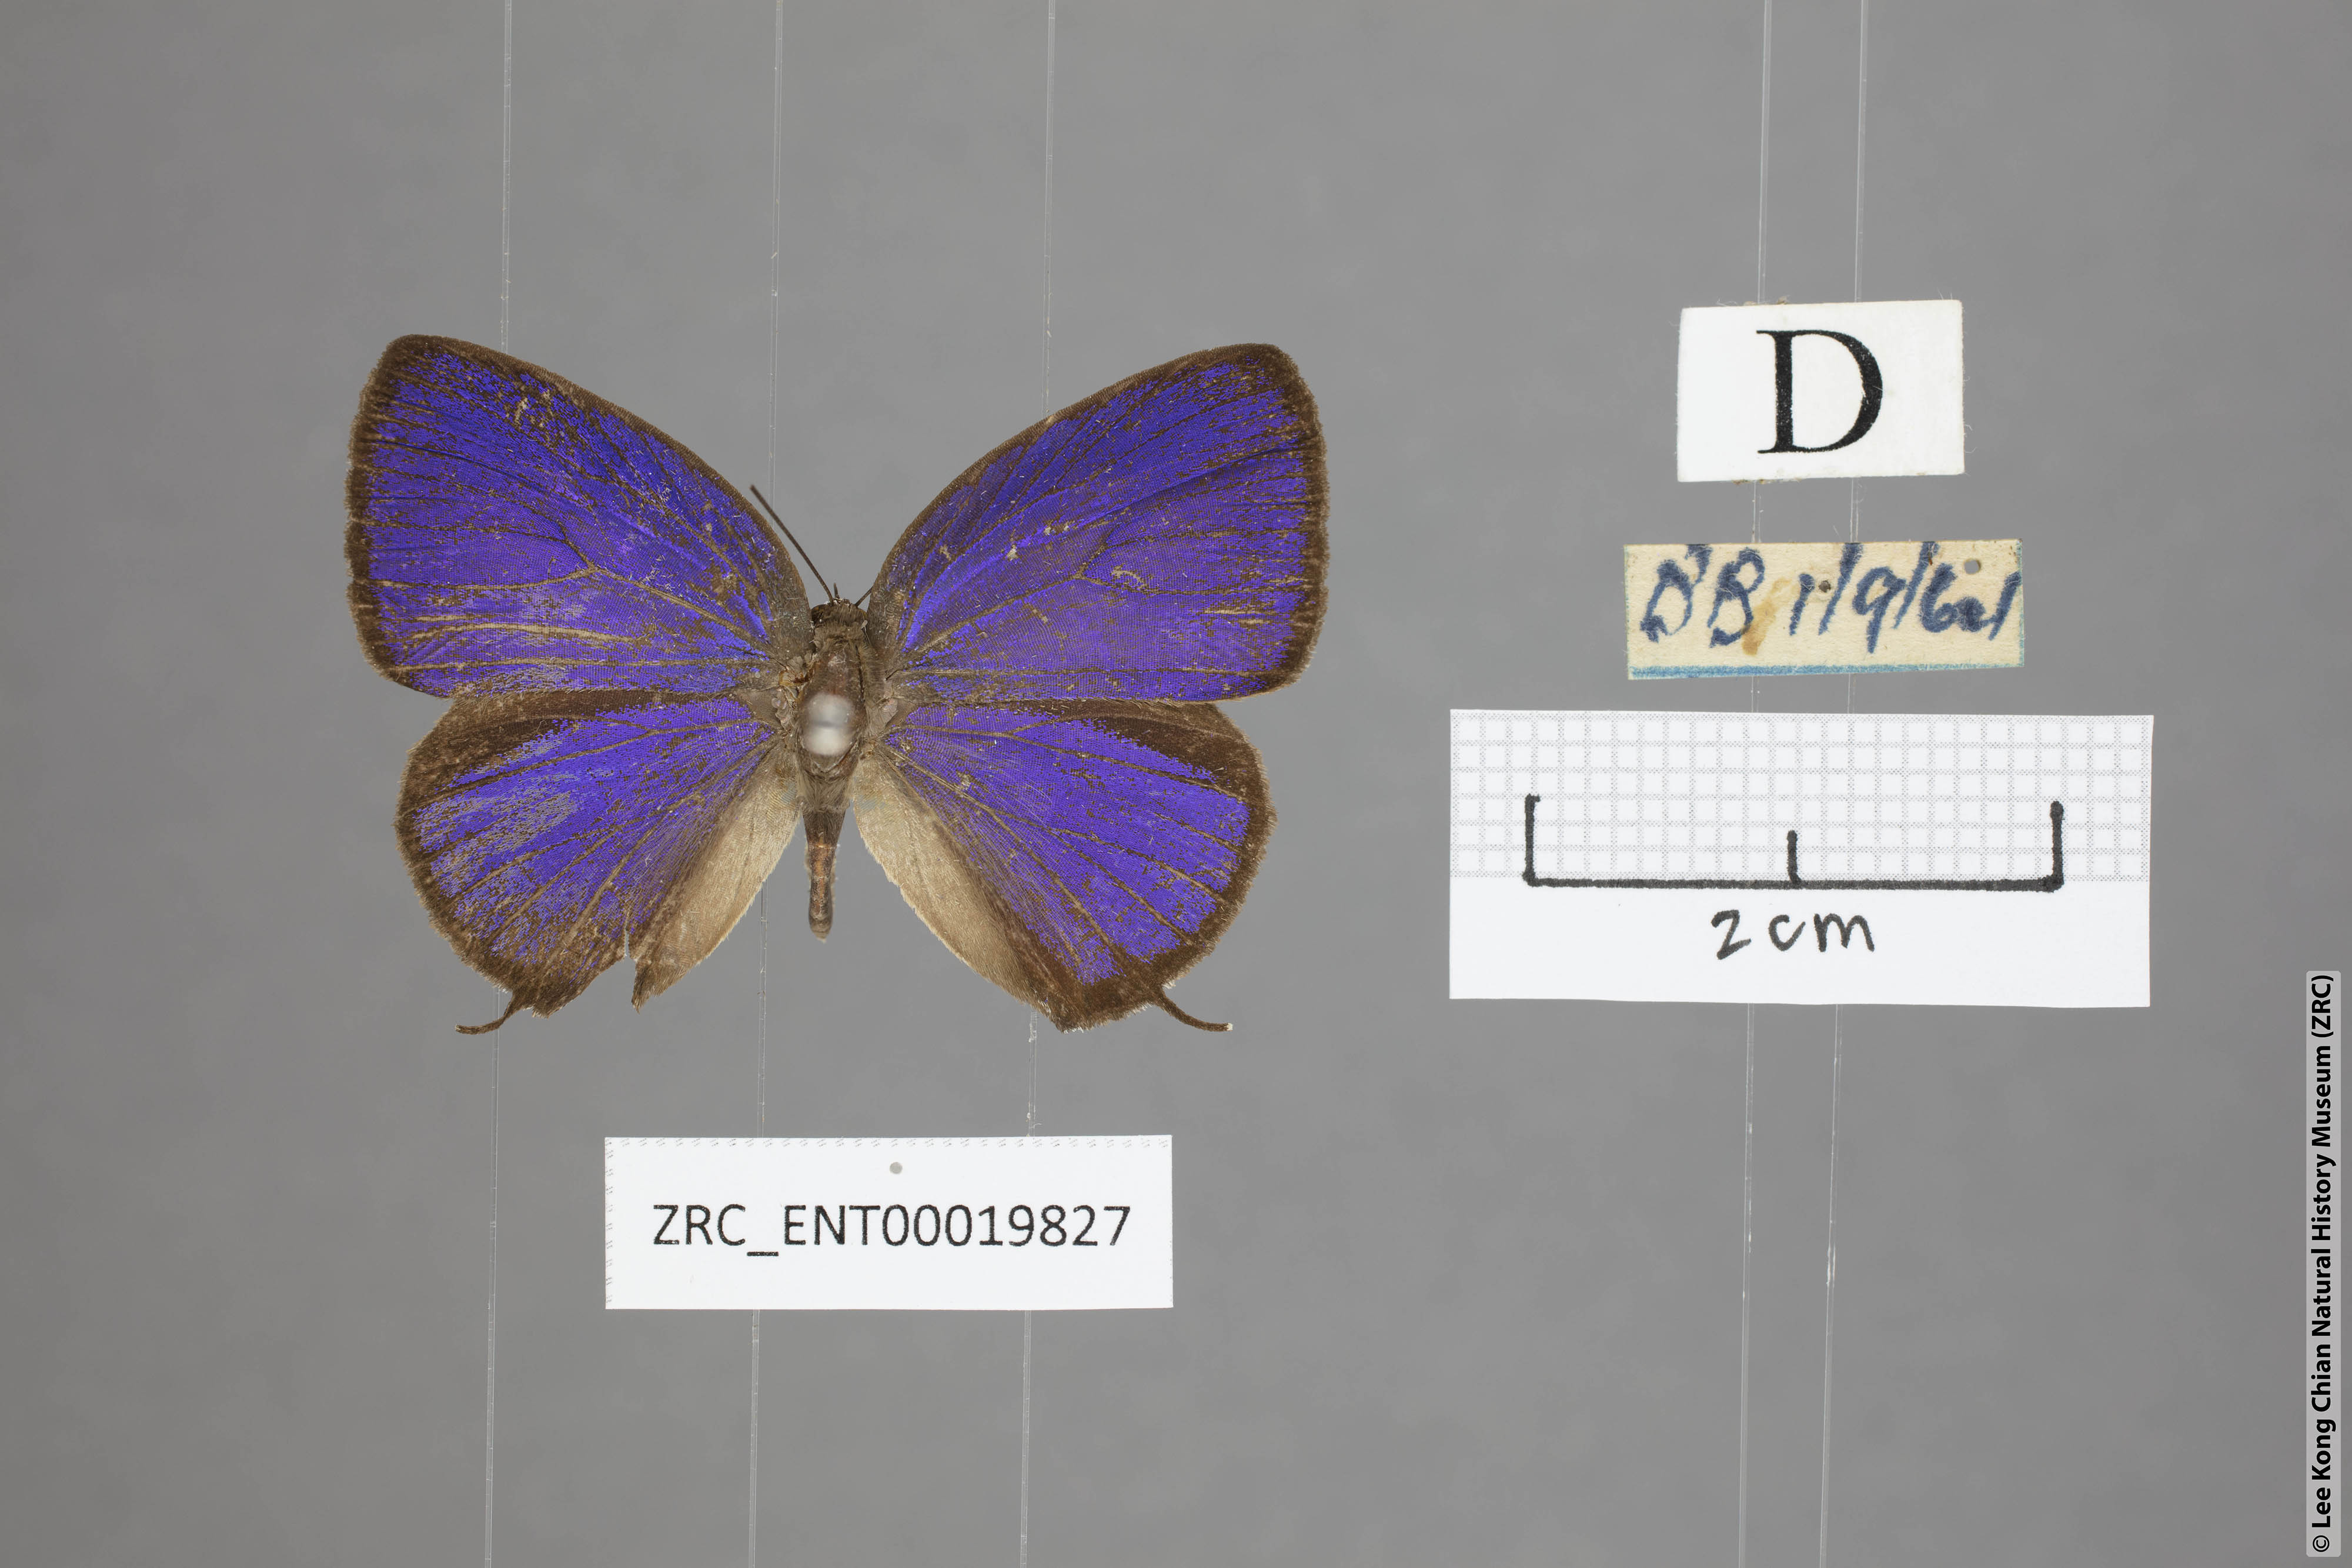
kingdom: Animalia
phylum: Arthropoda
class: Insecta
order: Lepidoptera
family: Lycaenidae
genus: Arhopala
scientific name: Arhopala pseudomuta
